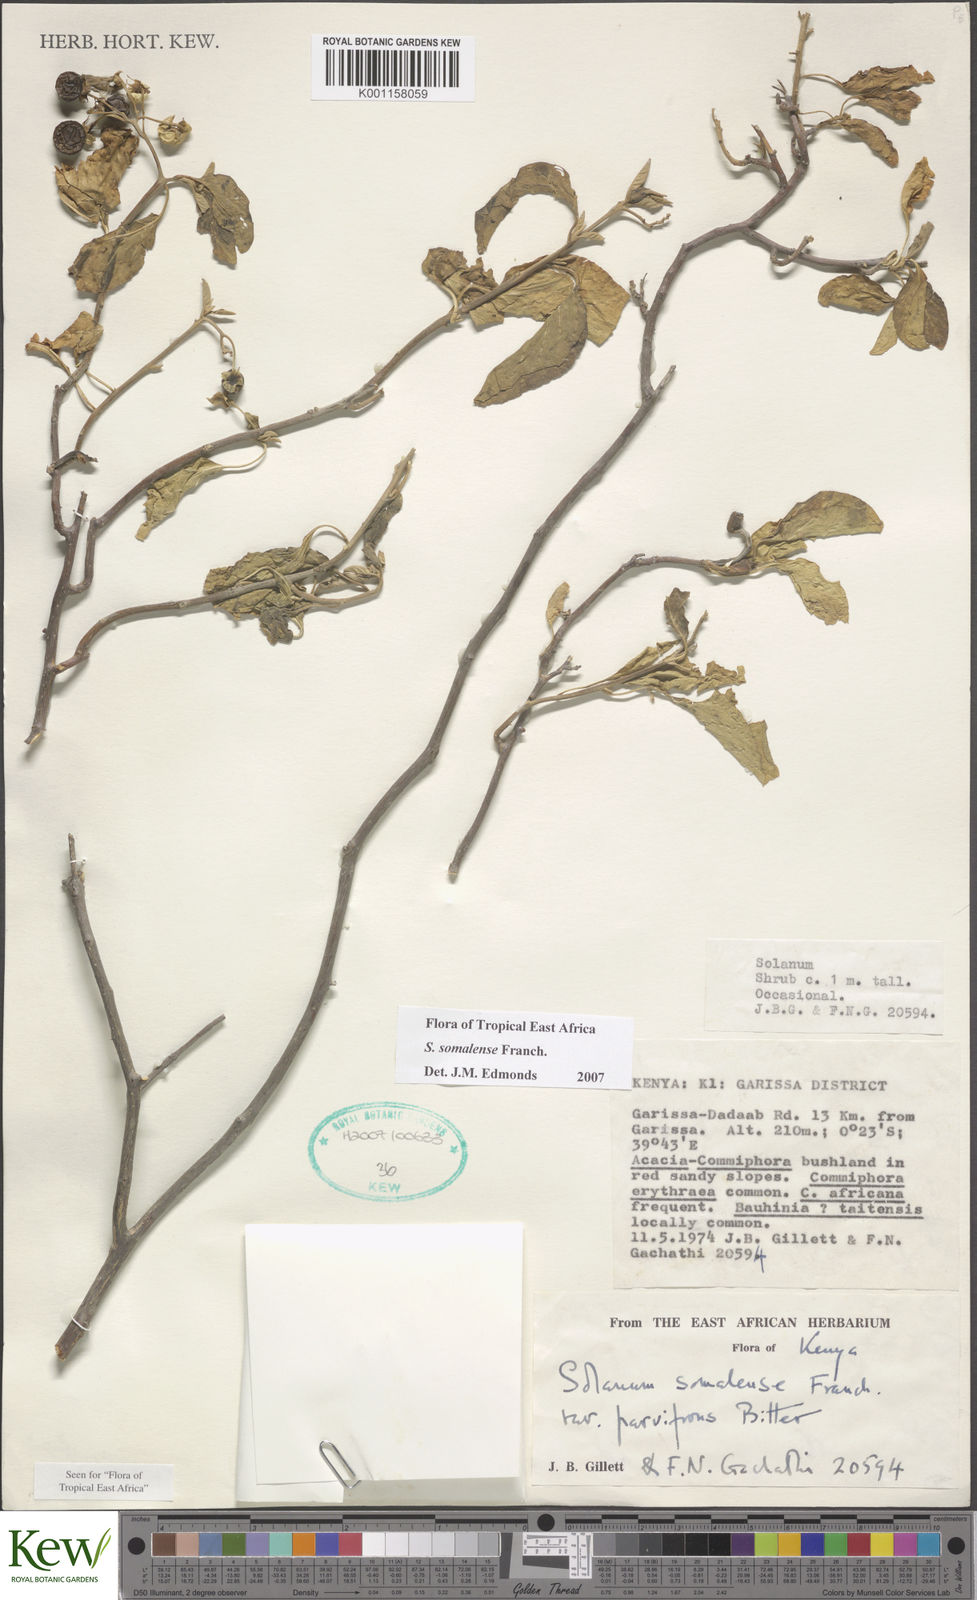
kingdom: Plantae
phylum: Tracheophyta
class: Magnoliopsida
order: Solanales
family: Solanaceae
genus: Solanum
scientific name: Solanum somalense
